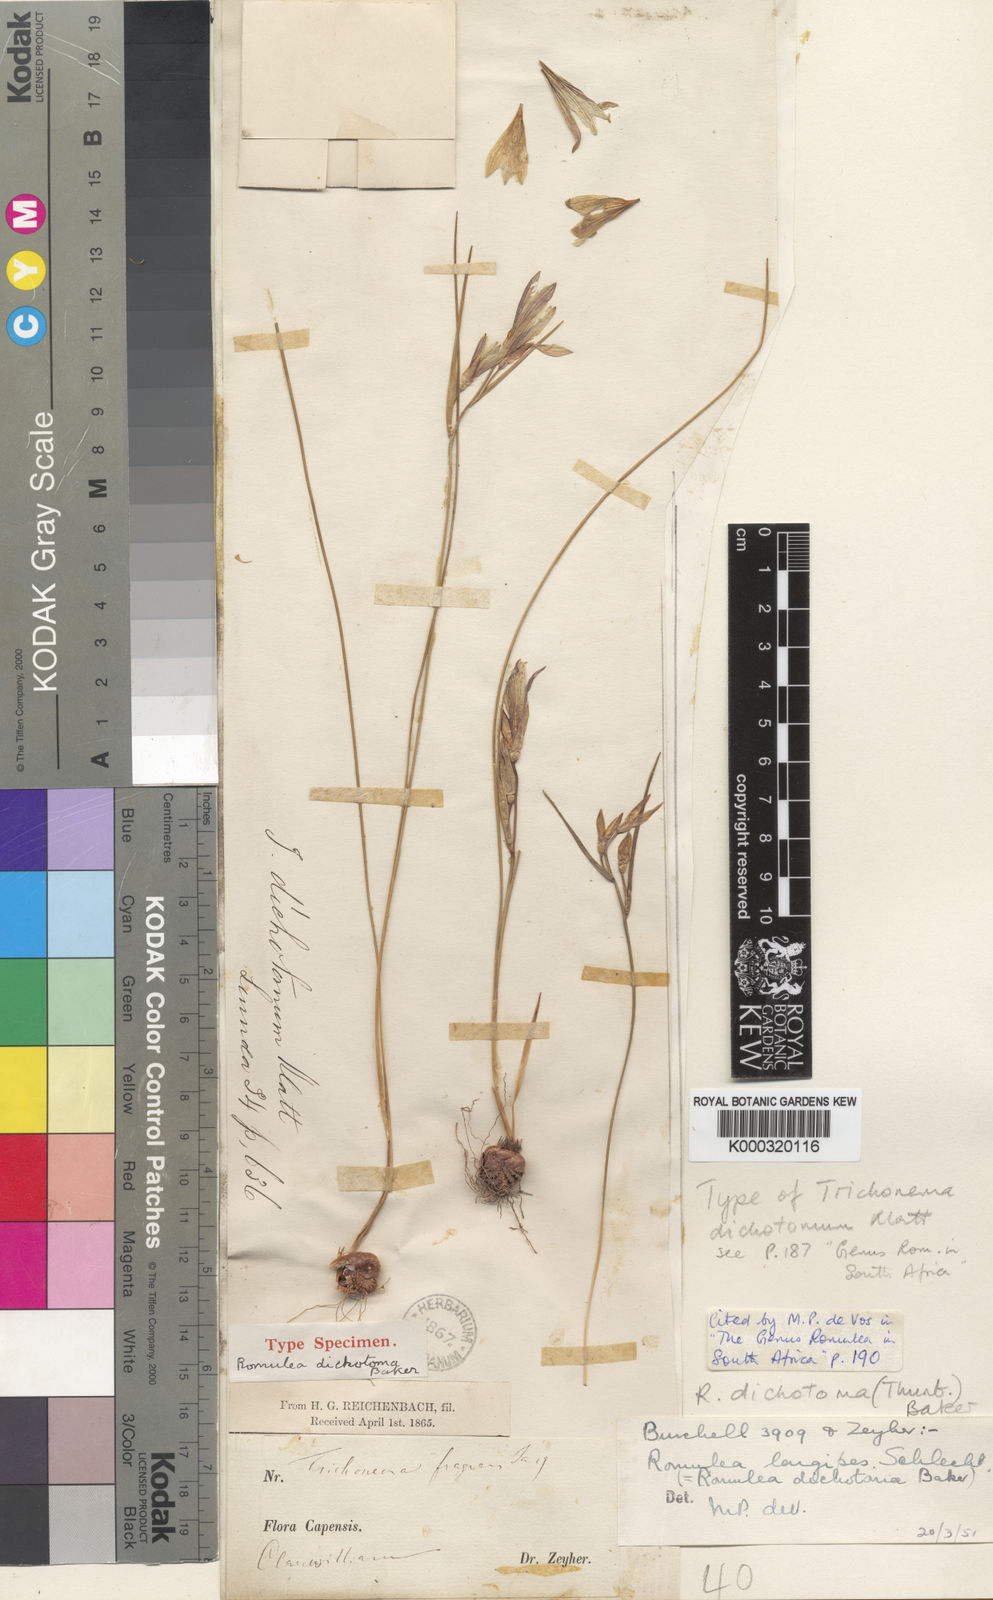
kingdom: Plantae
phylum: Tracheophyta
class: Liliopsida
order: Asparagales
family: Iridaceae
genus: Romulea
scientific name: Romulea dichotoma
